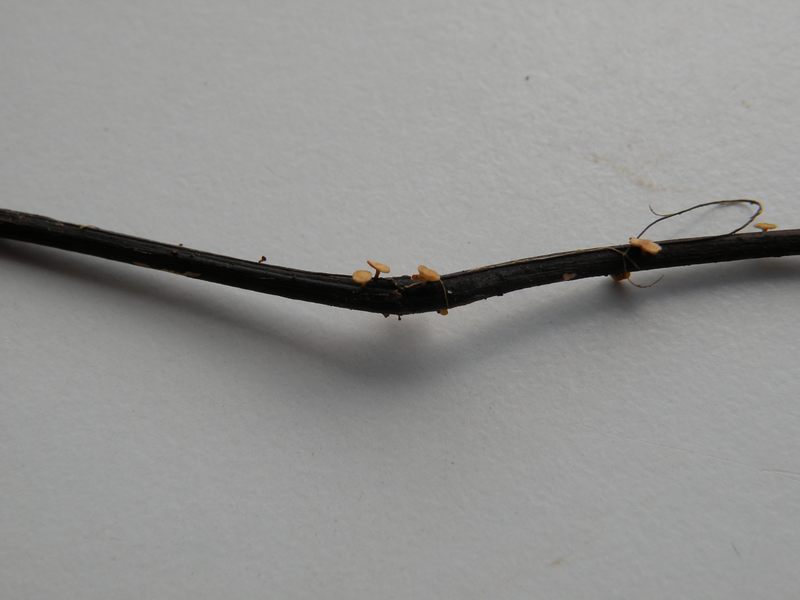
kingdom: Fungi
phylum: Ascomycota
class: Leotiomycetes
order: Helotiales
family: Helotiaceae
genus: Hymenoscyphus
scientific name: Hymenoscyphus fraxineus
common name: asketoptørre-stilkskive
